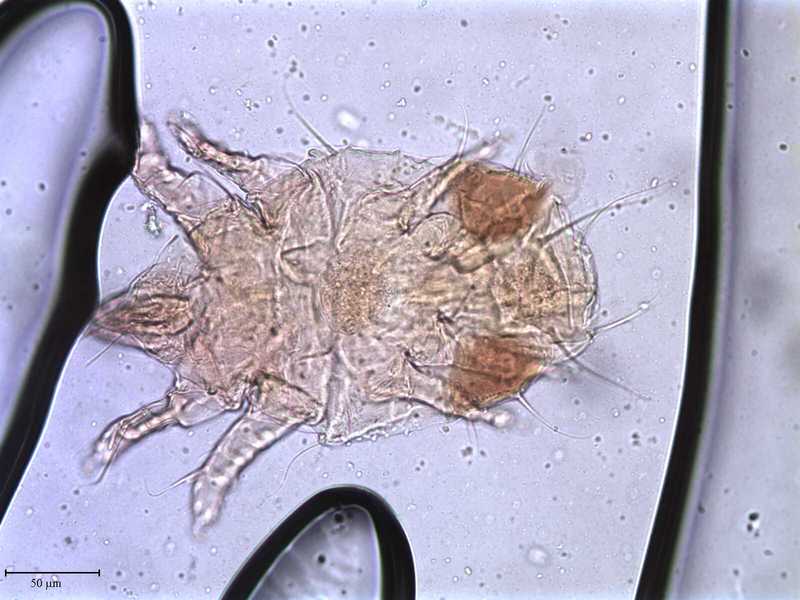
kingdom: Animalia
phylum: Arthropoda
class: Arachnida
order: Trombidiformes
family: Tarsonemidae
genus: Steneotarsonemus
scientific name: Steneotarsonemus laticeps
